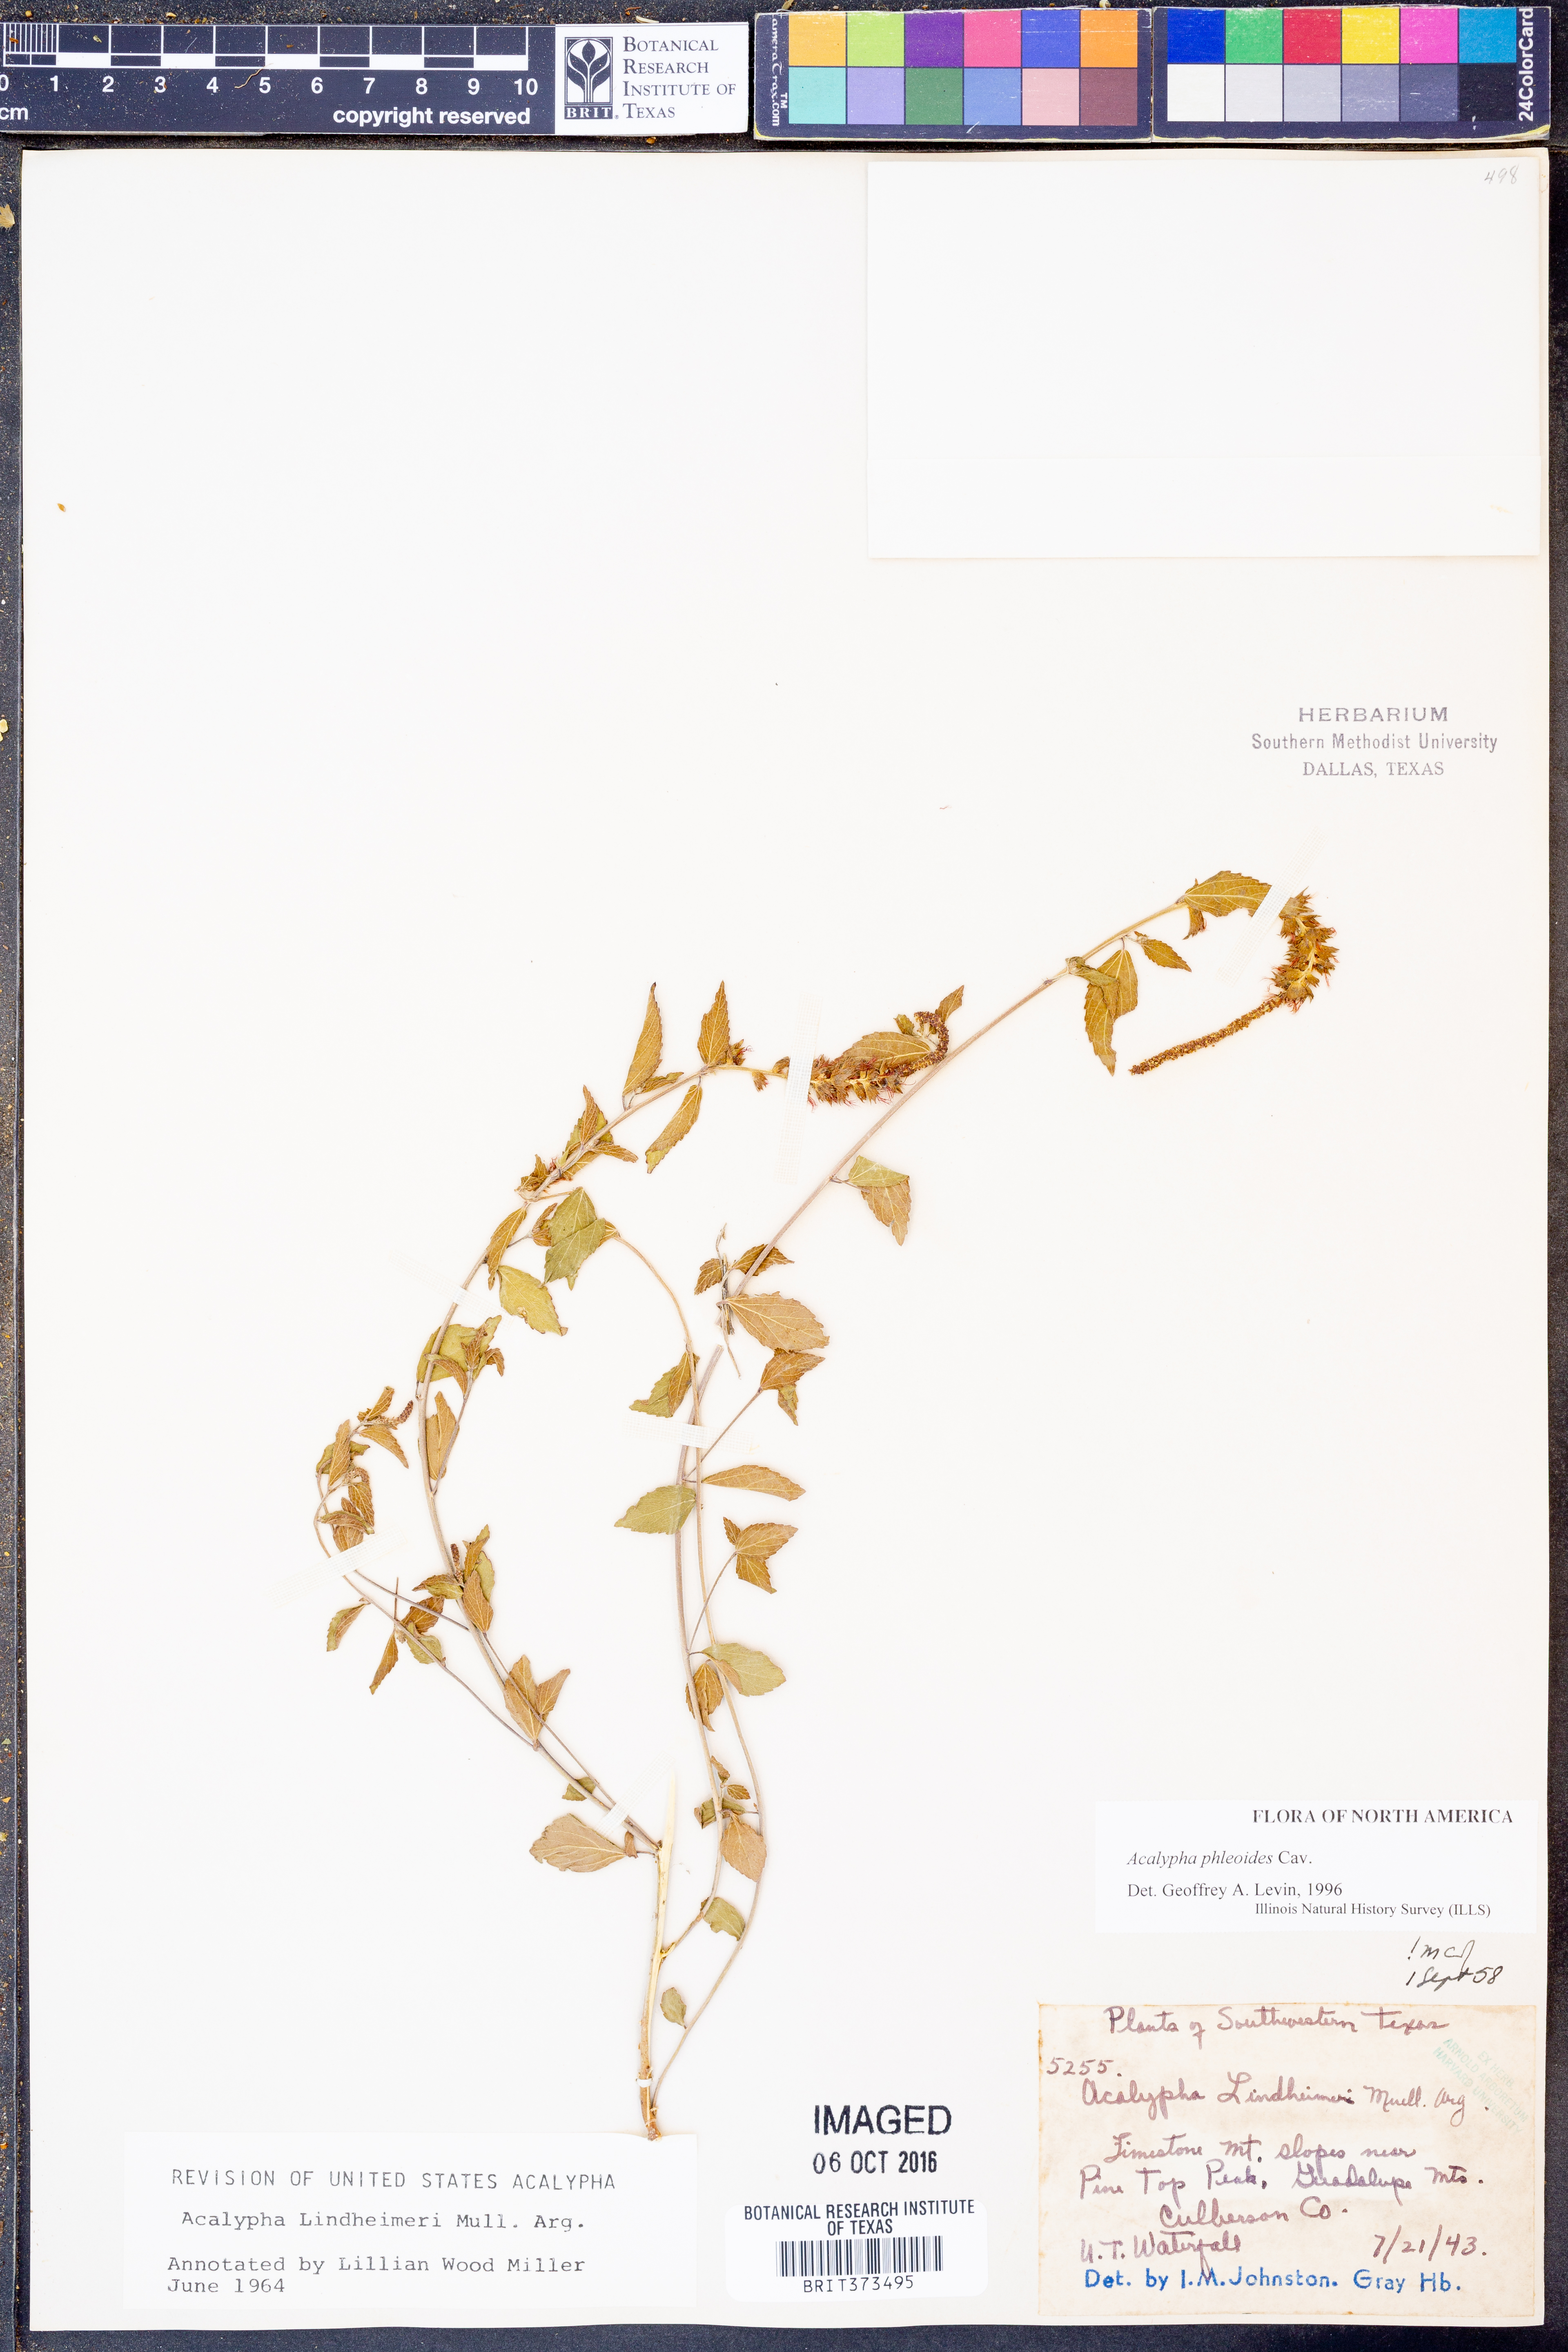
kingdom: Plantae
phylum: Tracheophyta
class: Magnoliopsida
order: Malpighiales
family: Euphorbiaceae
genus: Acalypha
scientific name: Acalypha phleoides
